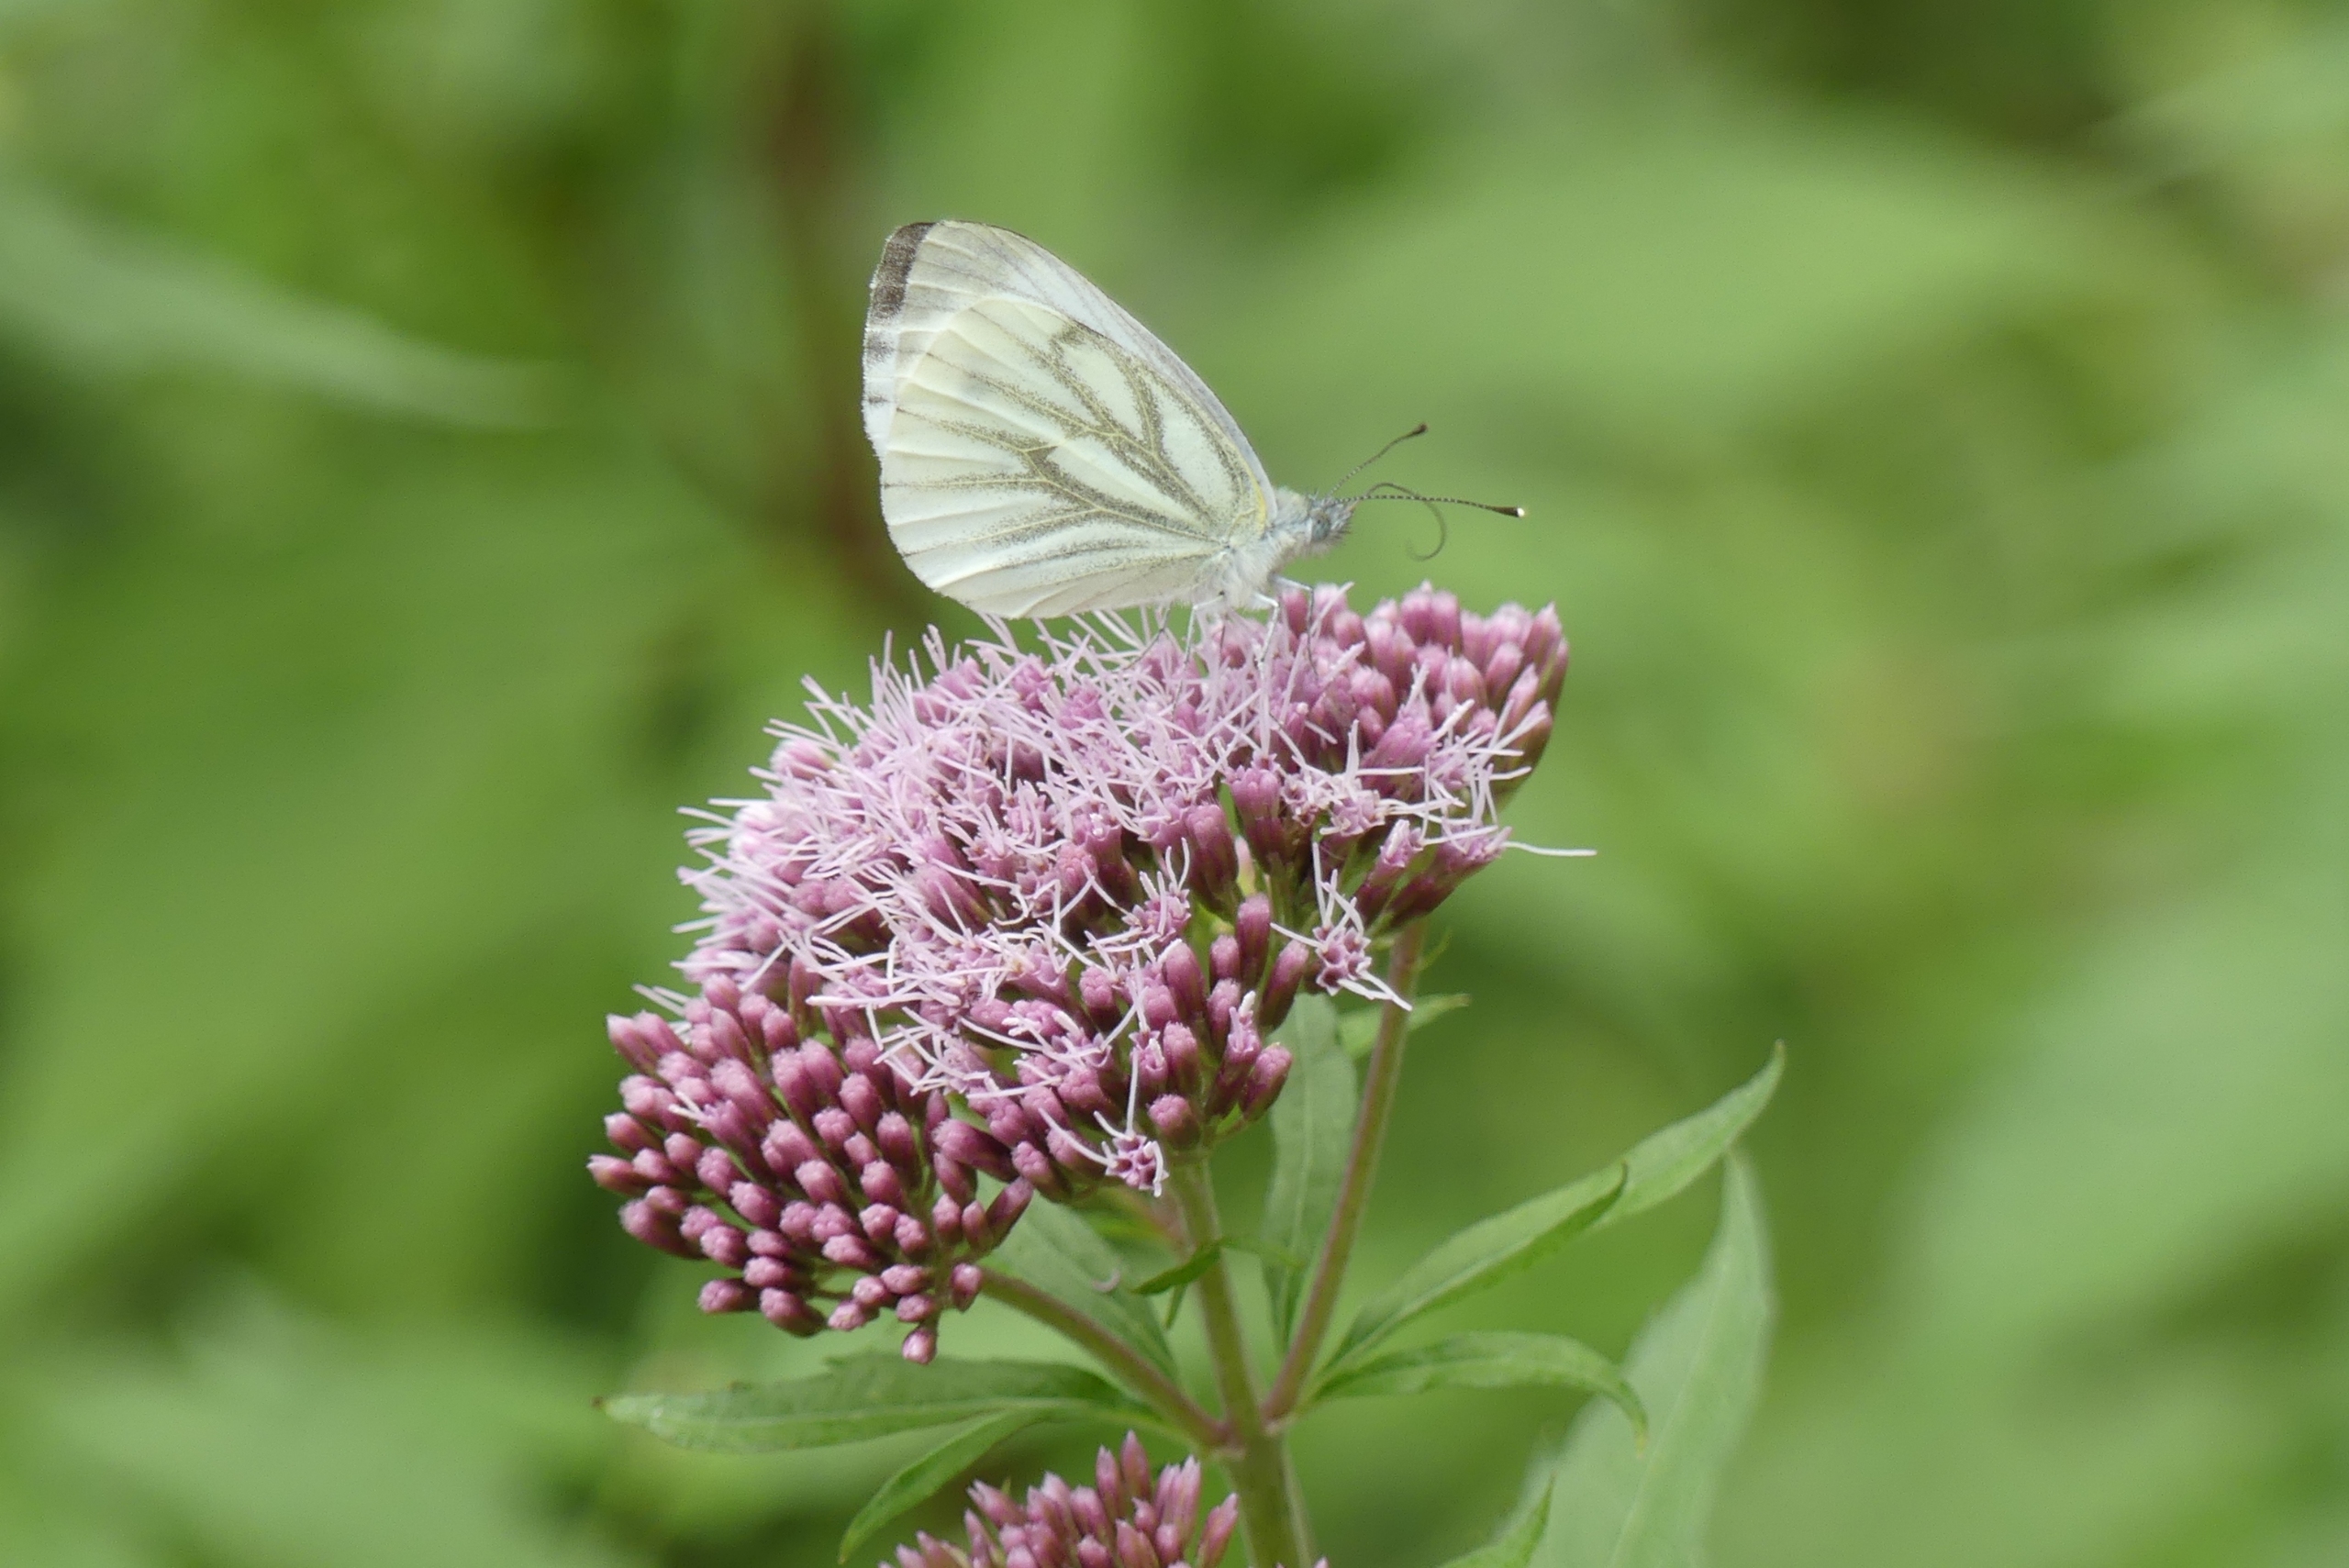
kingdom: Animalia
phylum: Arthropoda
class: Insecta
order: Lepidoptera
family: Pieridae
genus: Pieris
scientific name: Pieris napi
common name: Grønåret kålsommerfugl
